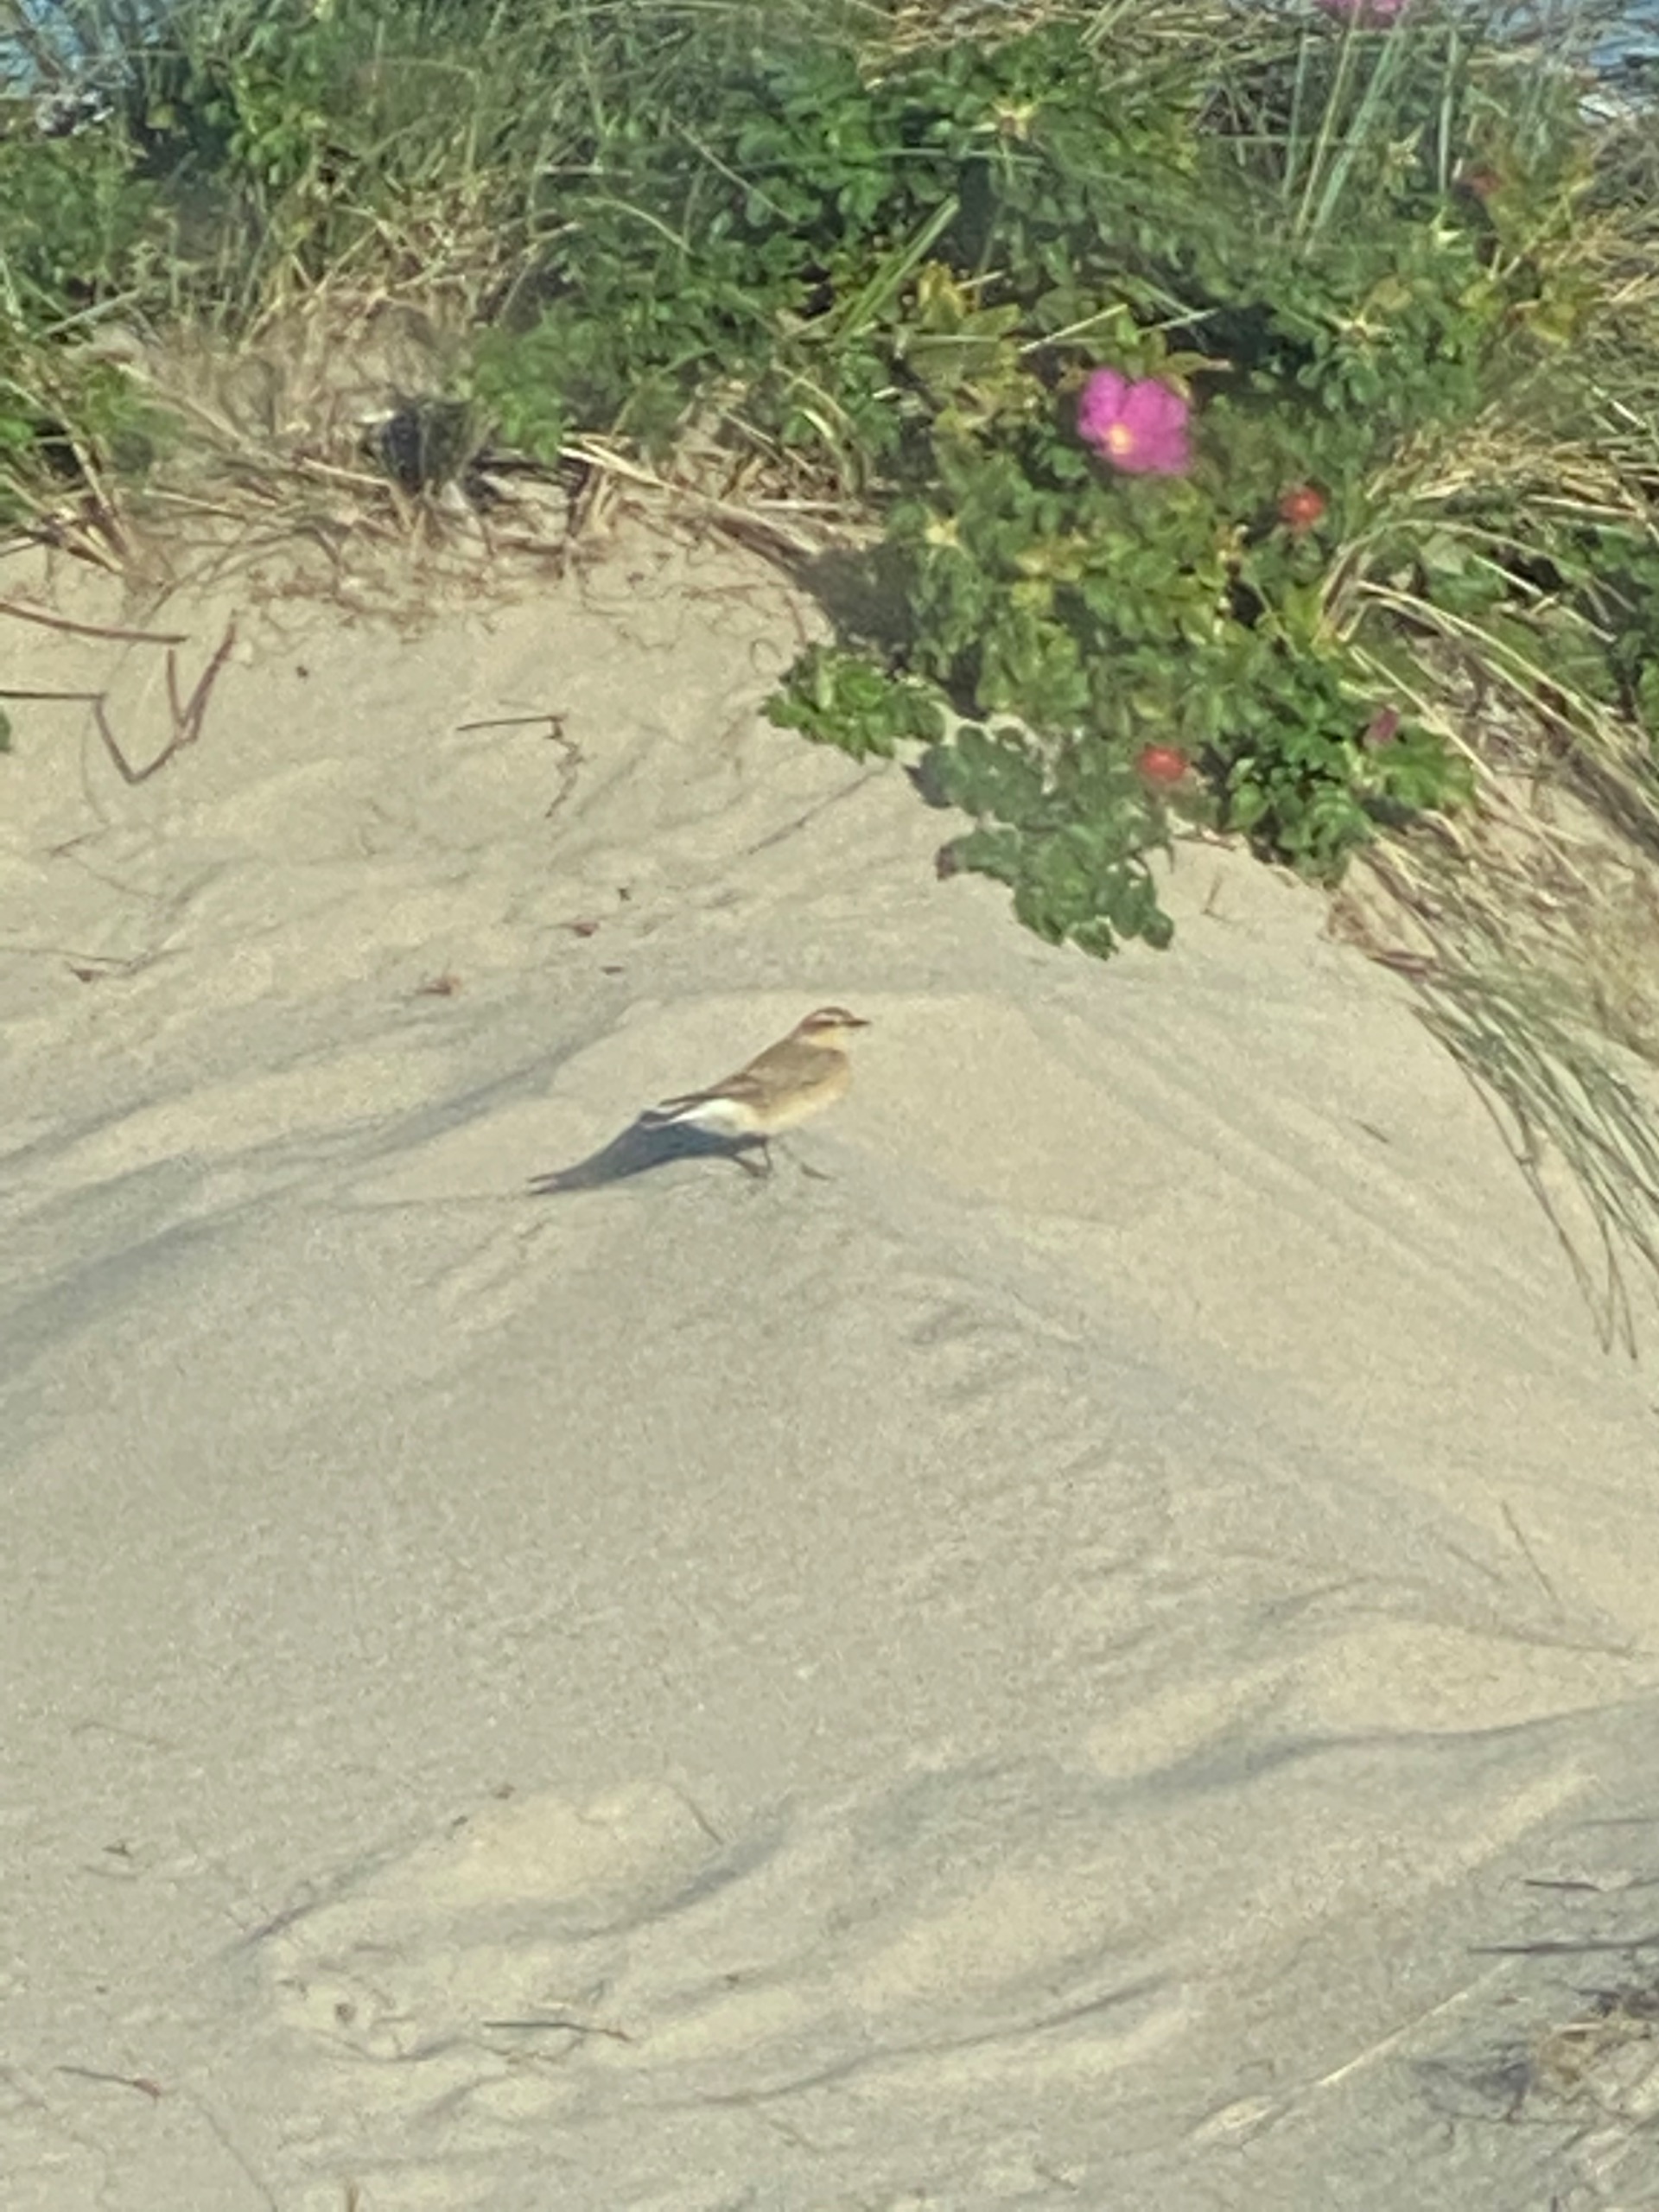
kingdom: Animalia
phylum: Chordata
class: Aves
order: Passeriformes
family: Muscicapidae
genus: Oenanthe
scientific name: Oenanthe oenanthe
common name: Stenpikker
